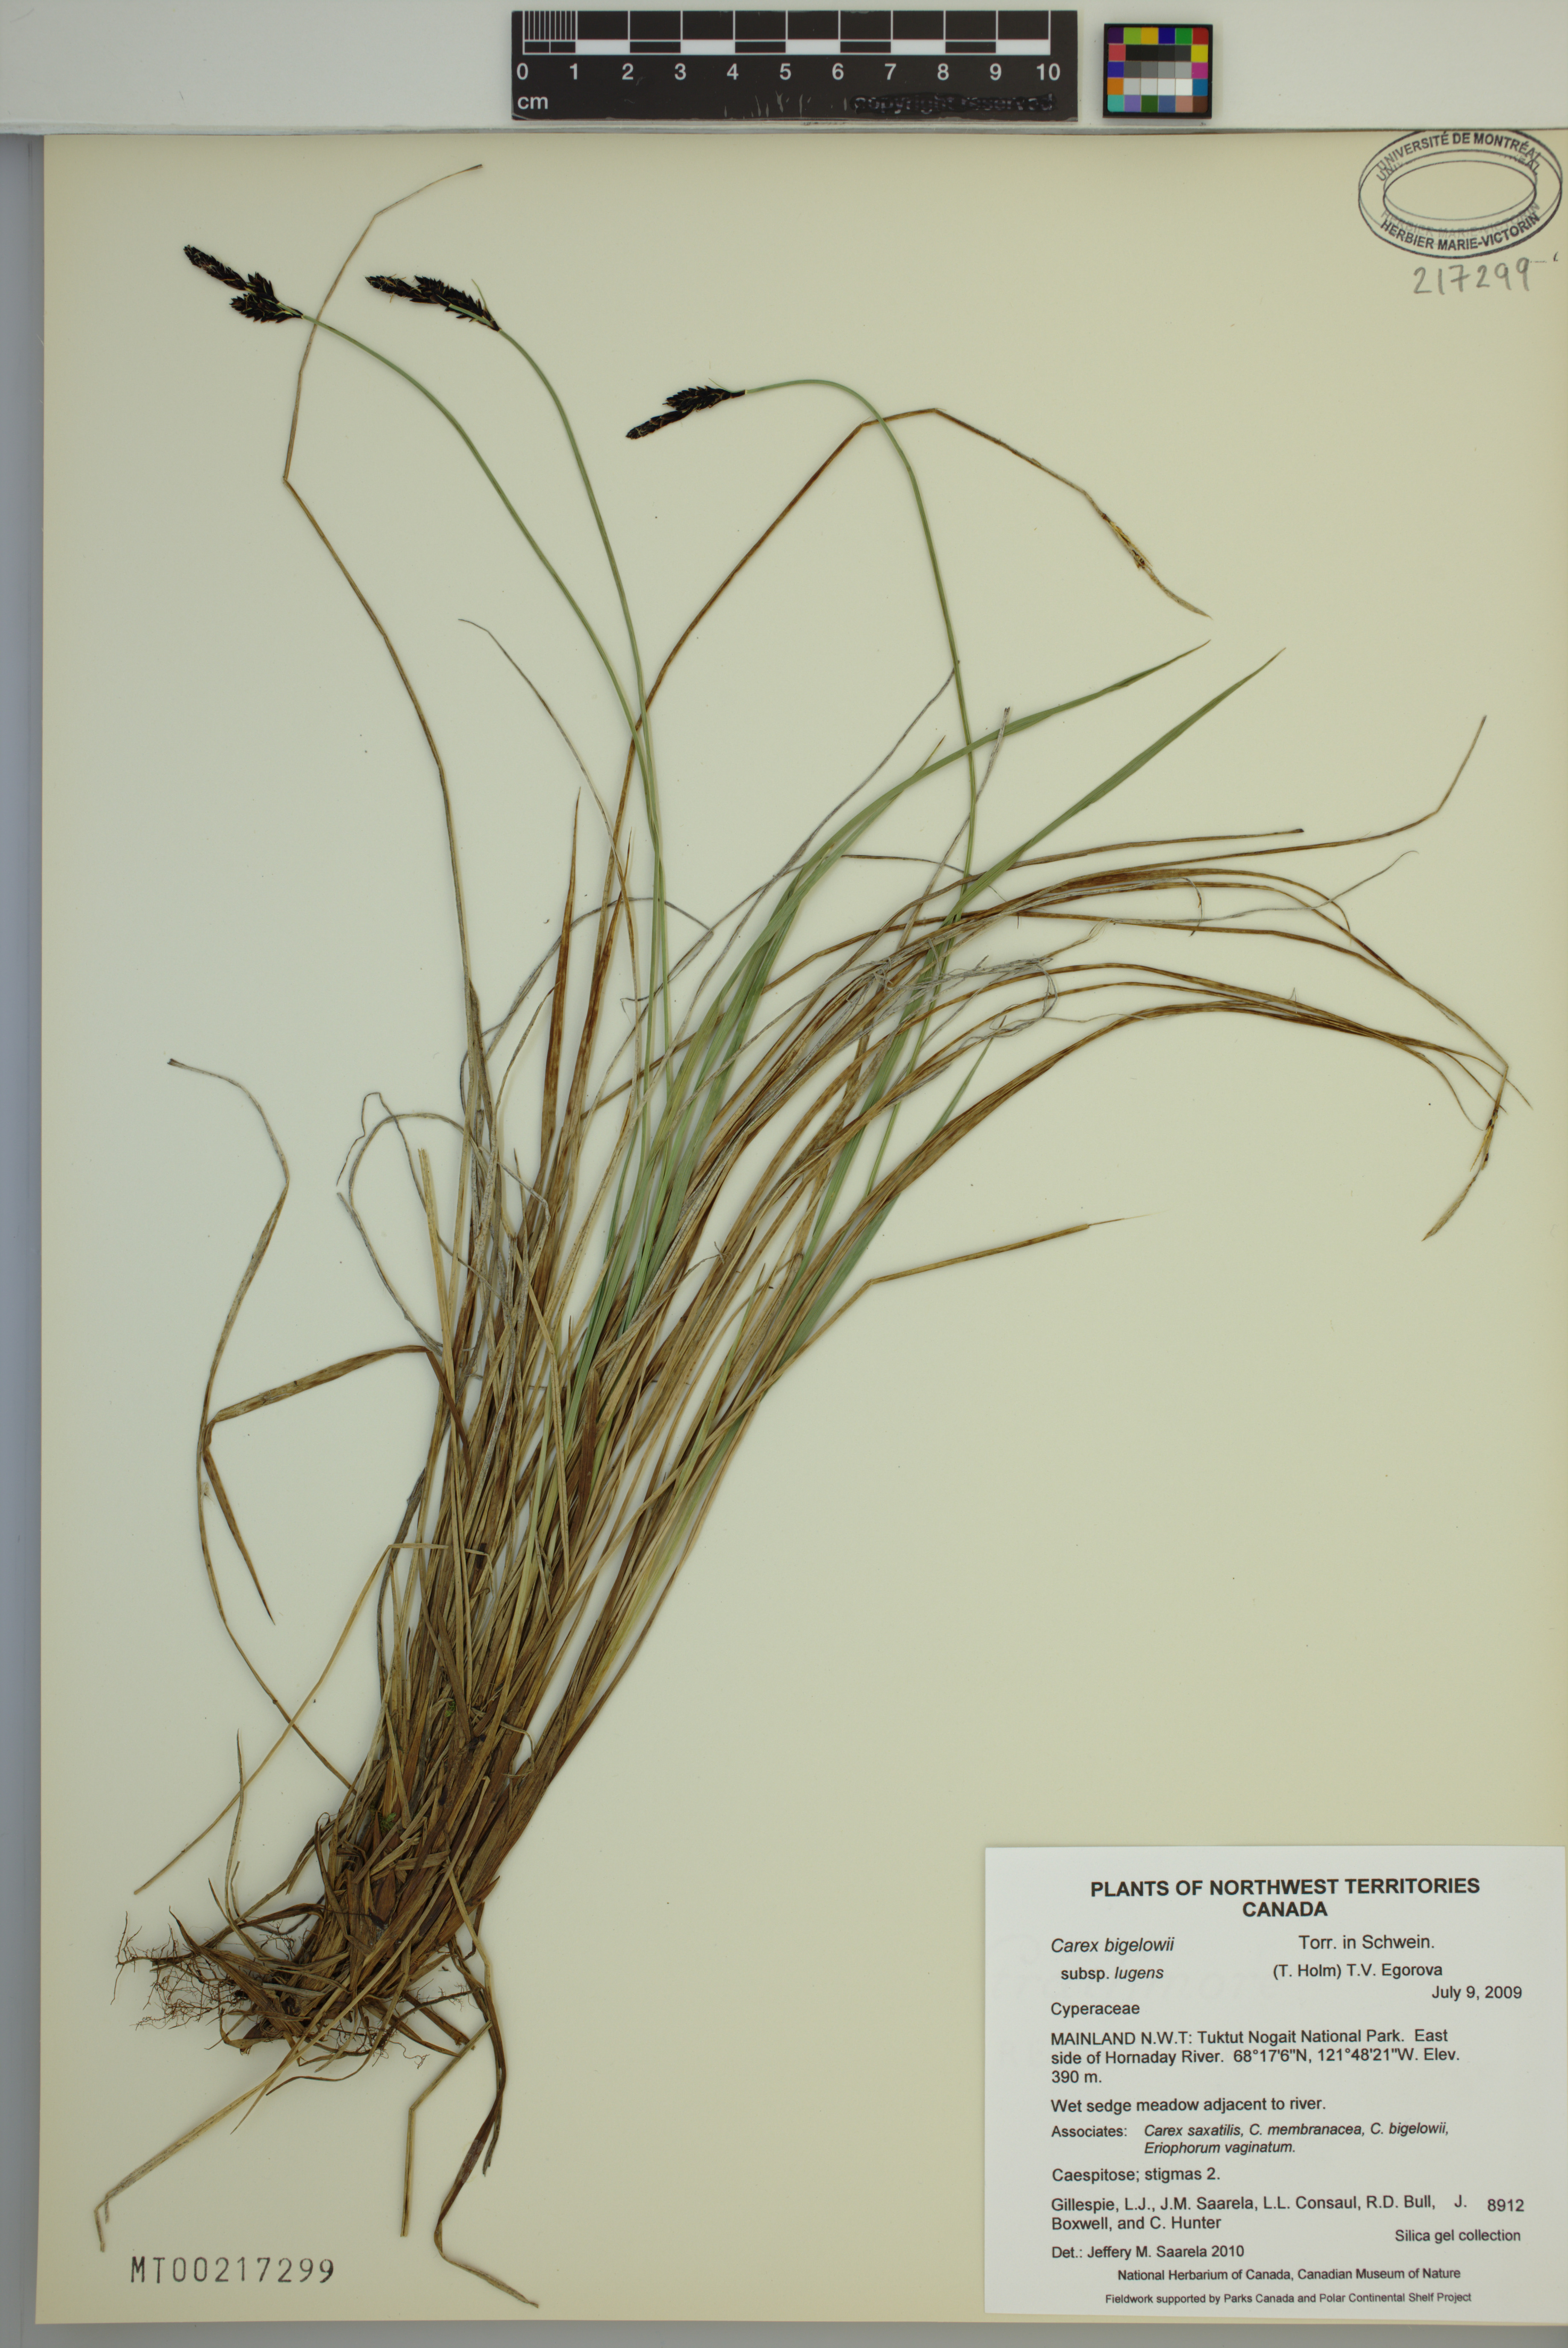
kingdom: Plantae
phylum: Tracheophyta
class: Liliopsida
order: Poales
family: Cyperaceae
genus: Carex
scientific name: Carex bigelowii
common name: Stiff sedge
